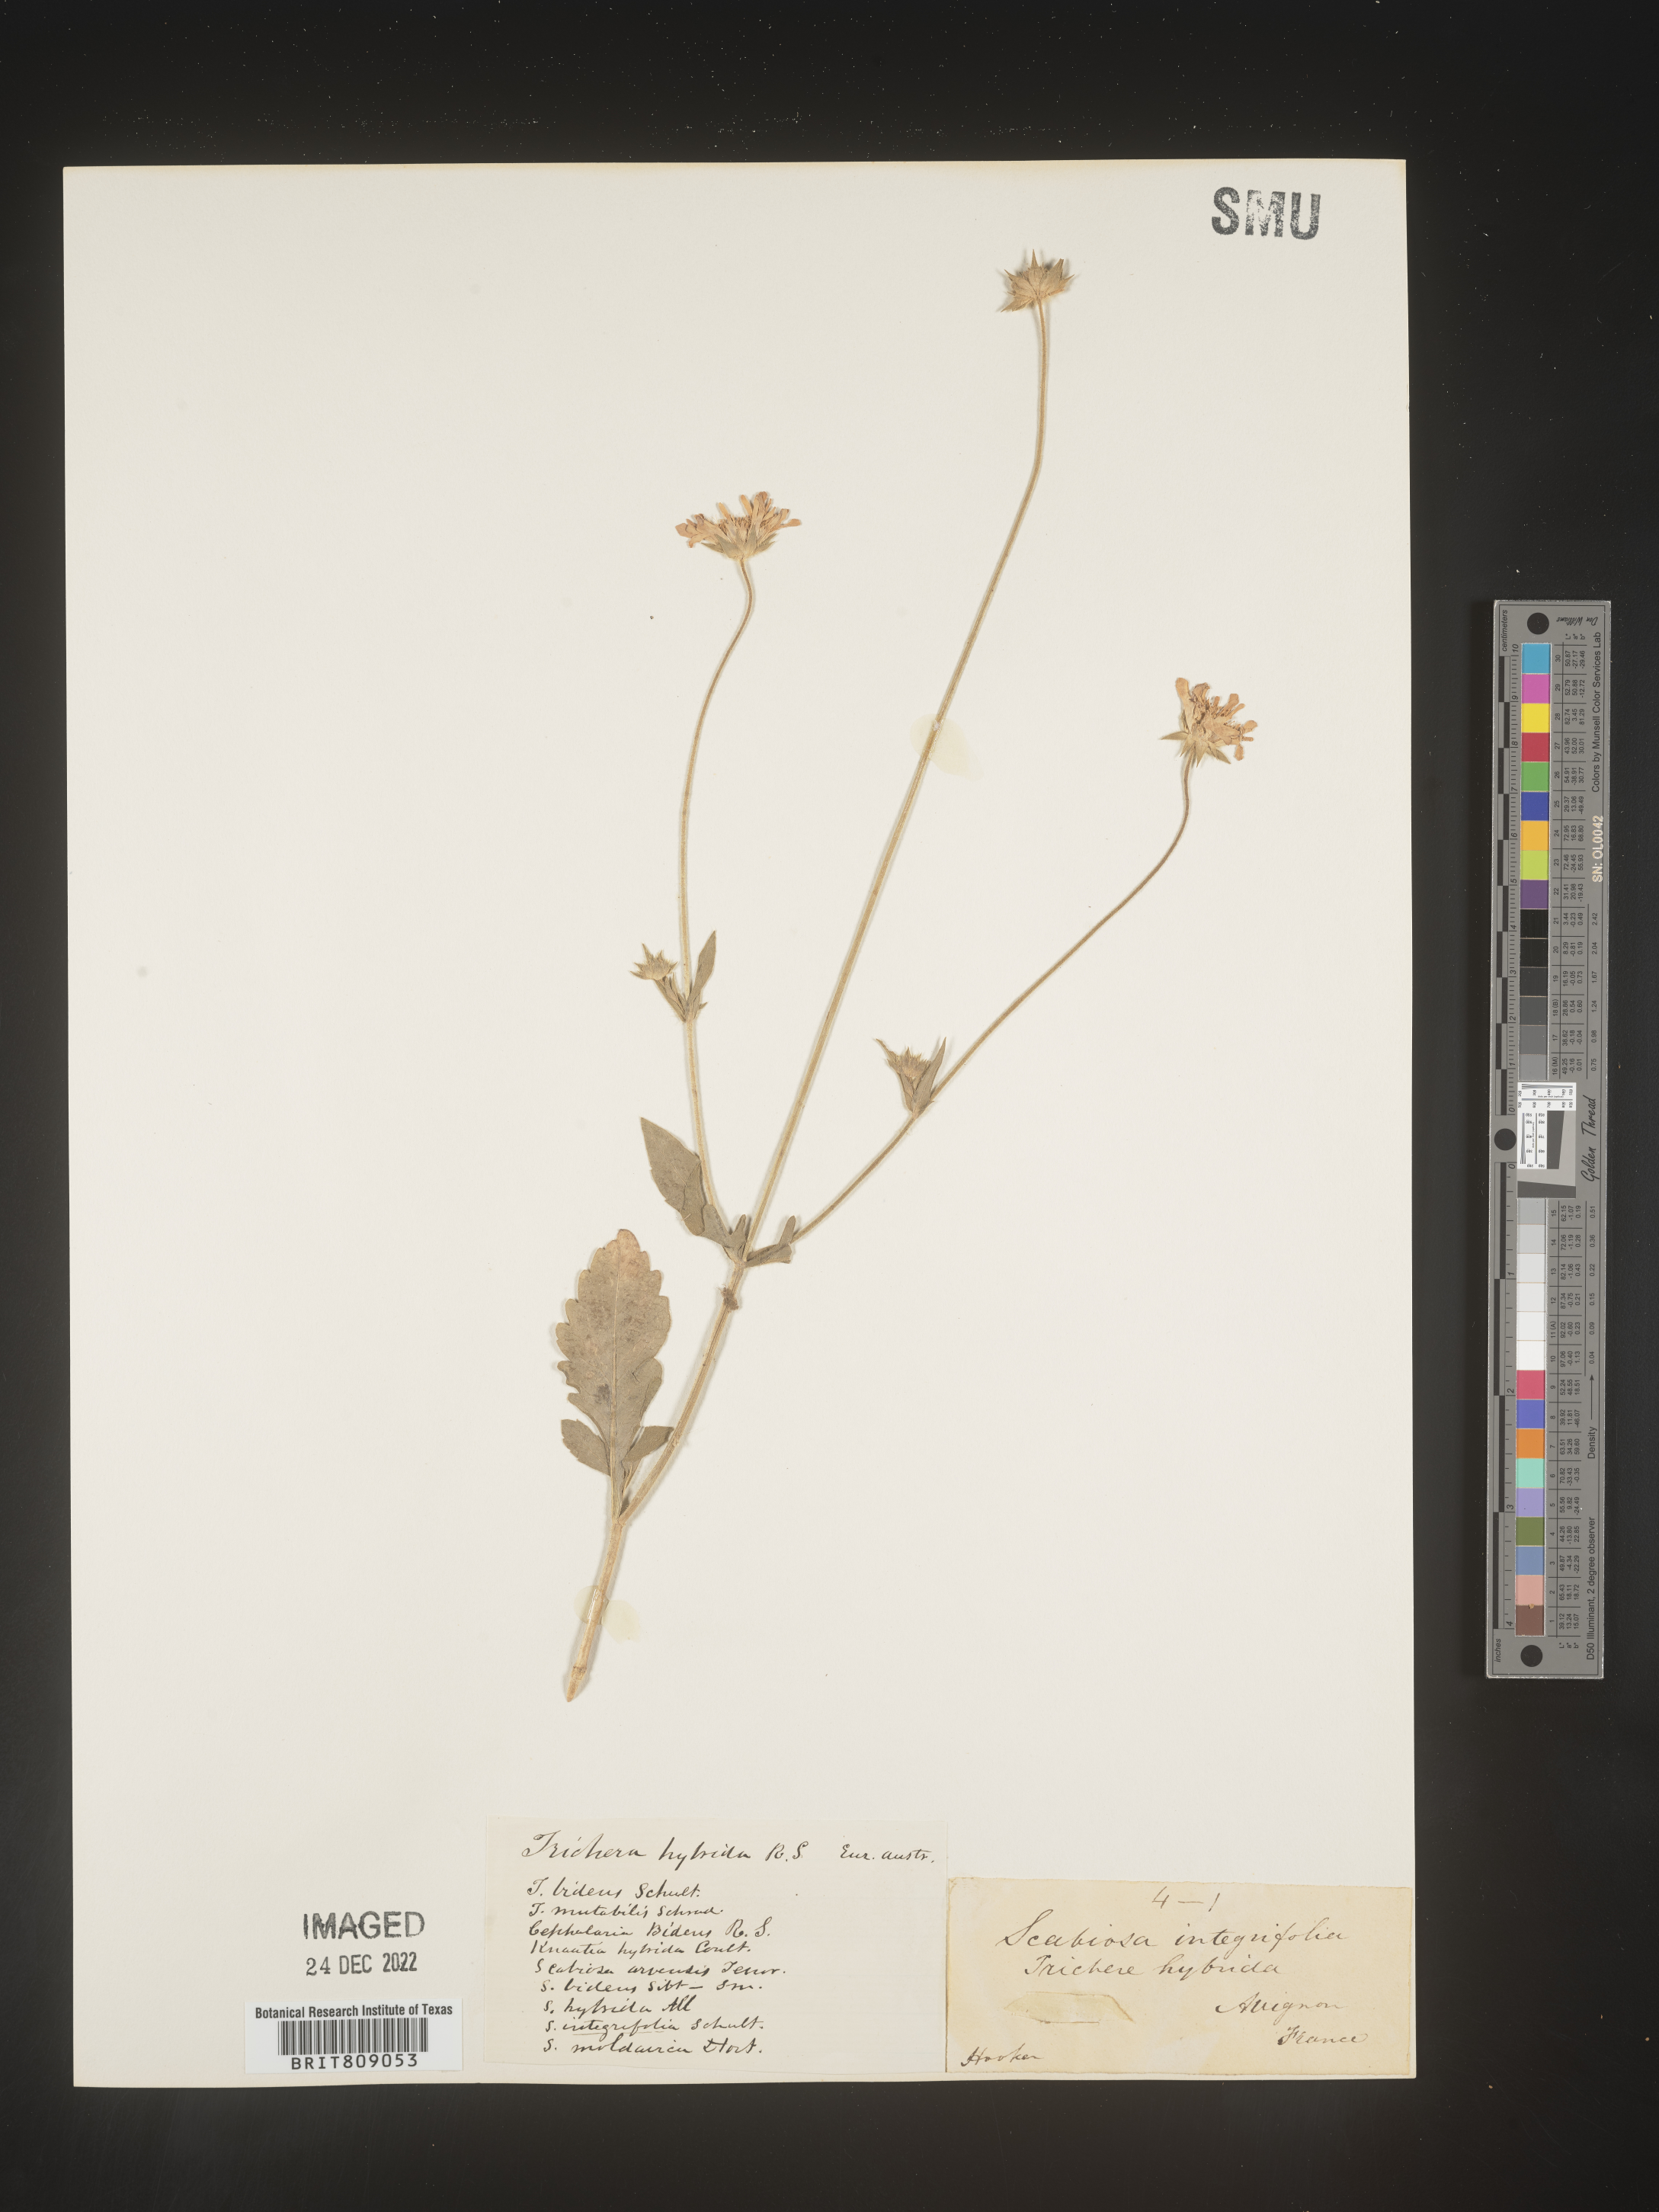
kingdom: Plantae
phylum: Tracheophyta
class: Magnoliopsida
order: Dipsacales
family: Caprifoliaceae
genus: Scabiosa
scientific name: Scabiosa
